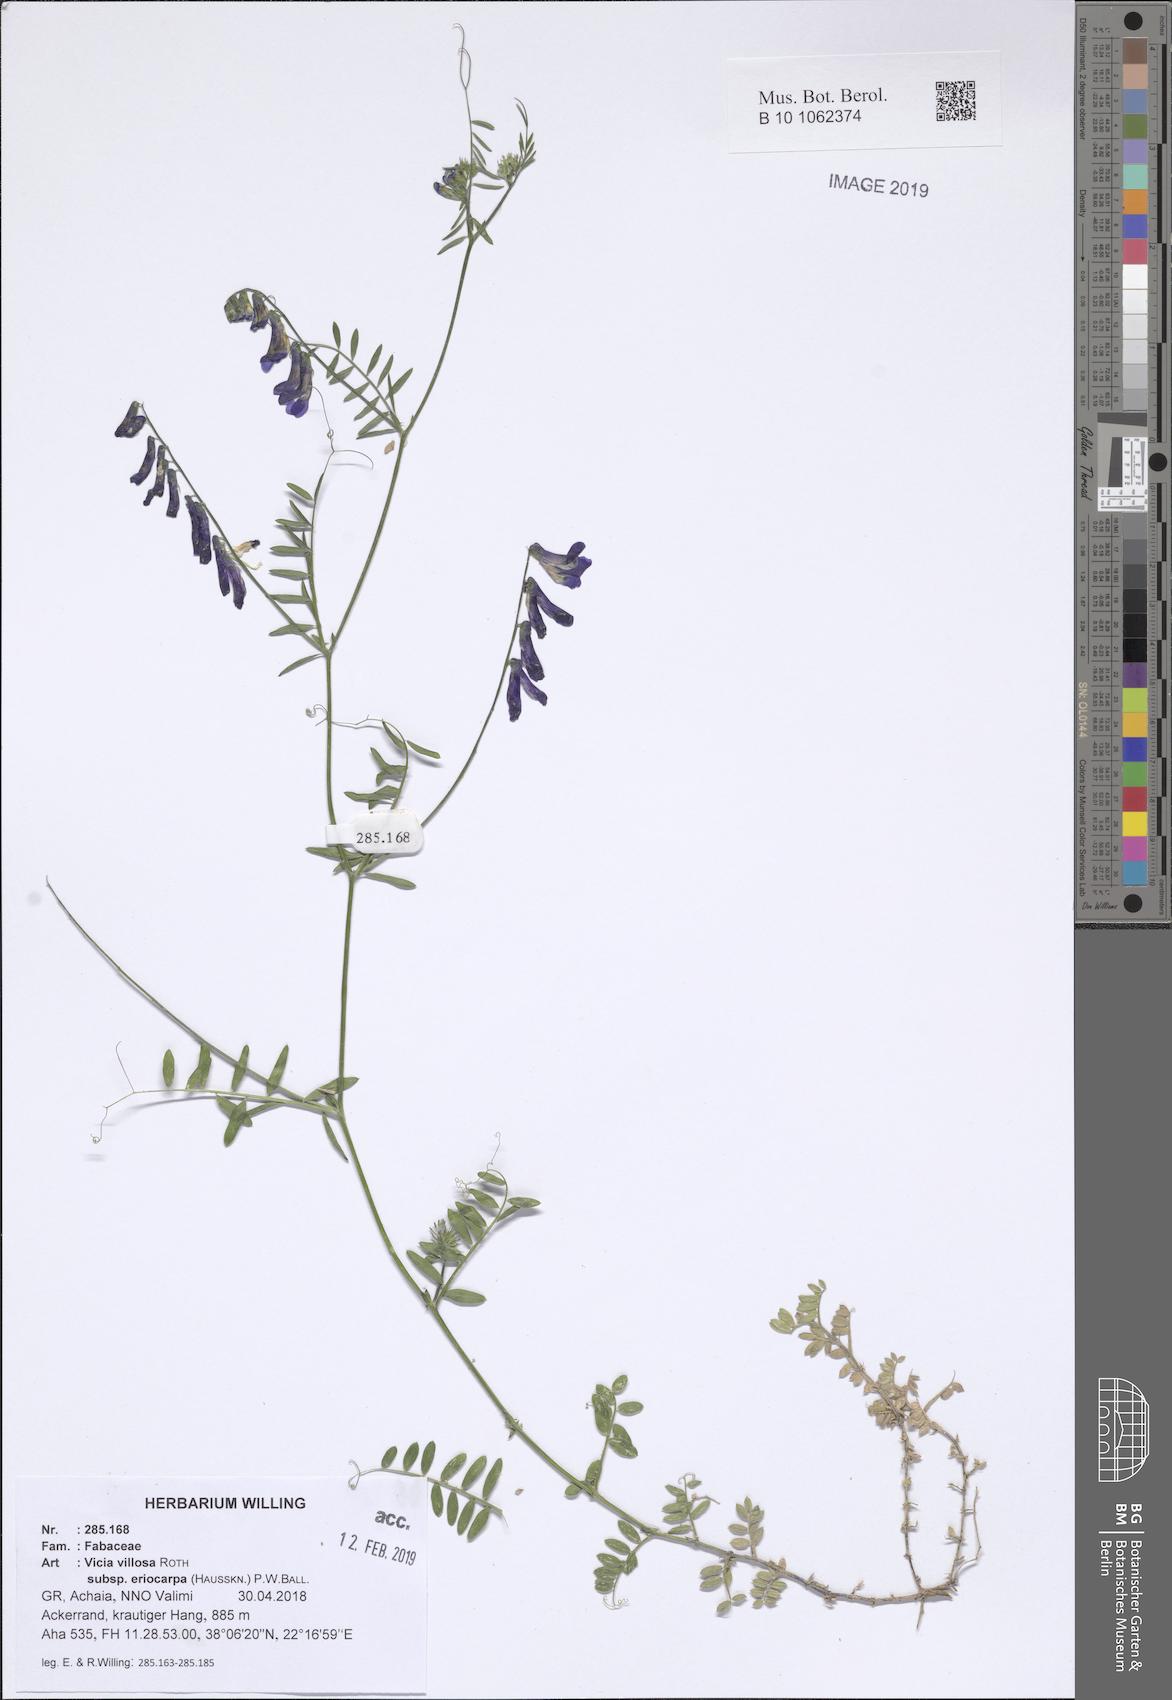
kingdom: Plantae
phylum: Tracheophyta
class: Magnoliopsida
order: Fabales
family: Fabaceae
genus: Vicia
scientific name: Vicia eriocarpa
